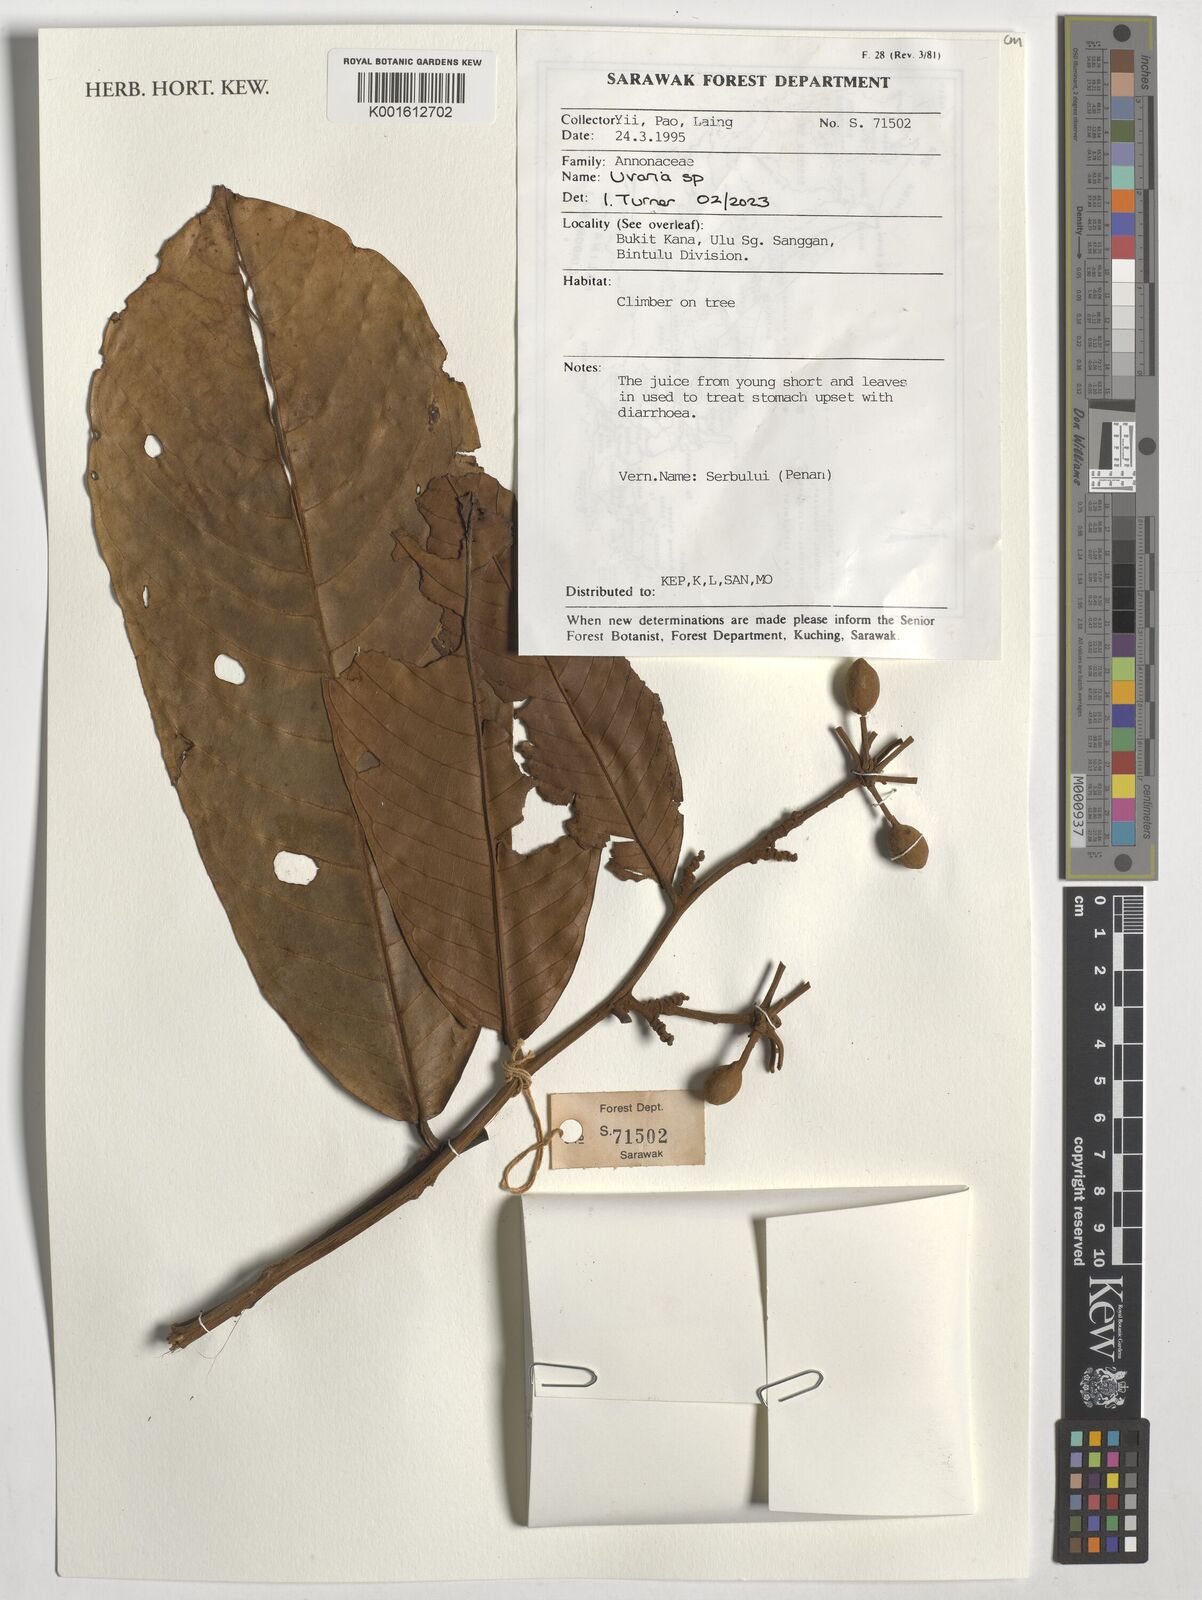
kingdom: Plantae
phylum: Tracheophyta
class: Magnoliopsida
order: Magnoliales
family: Annonaceae
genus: Uvaria
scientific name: Uvaria
